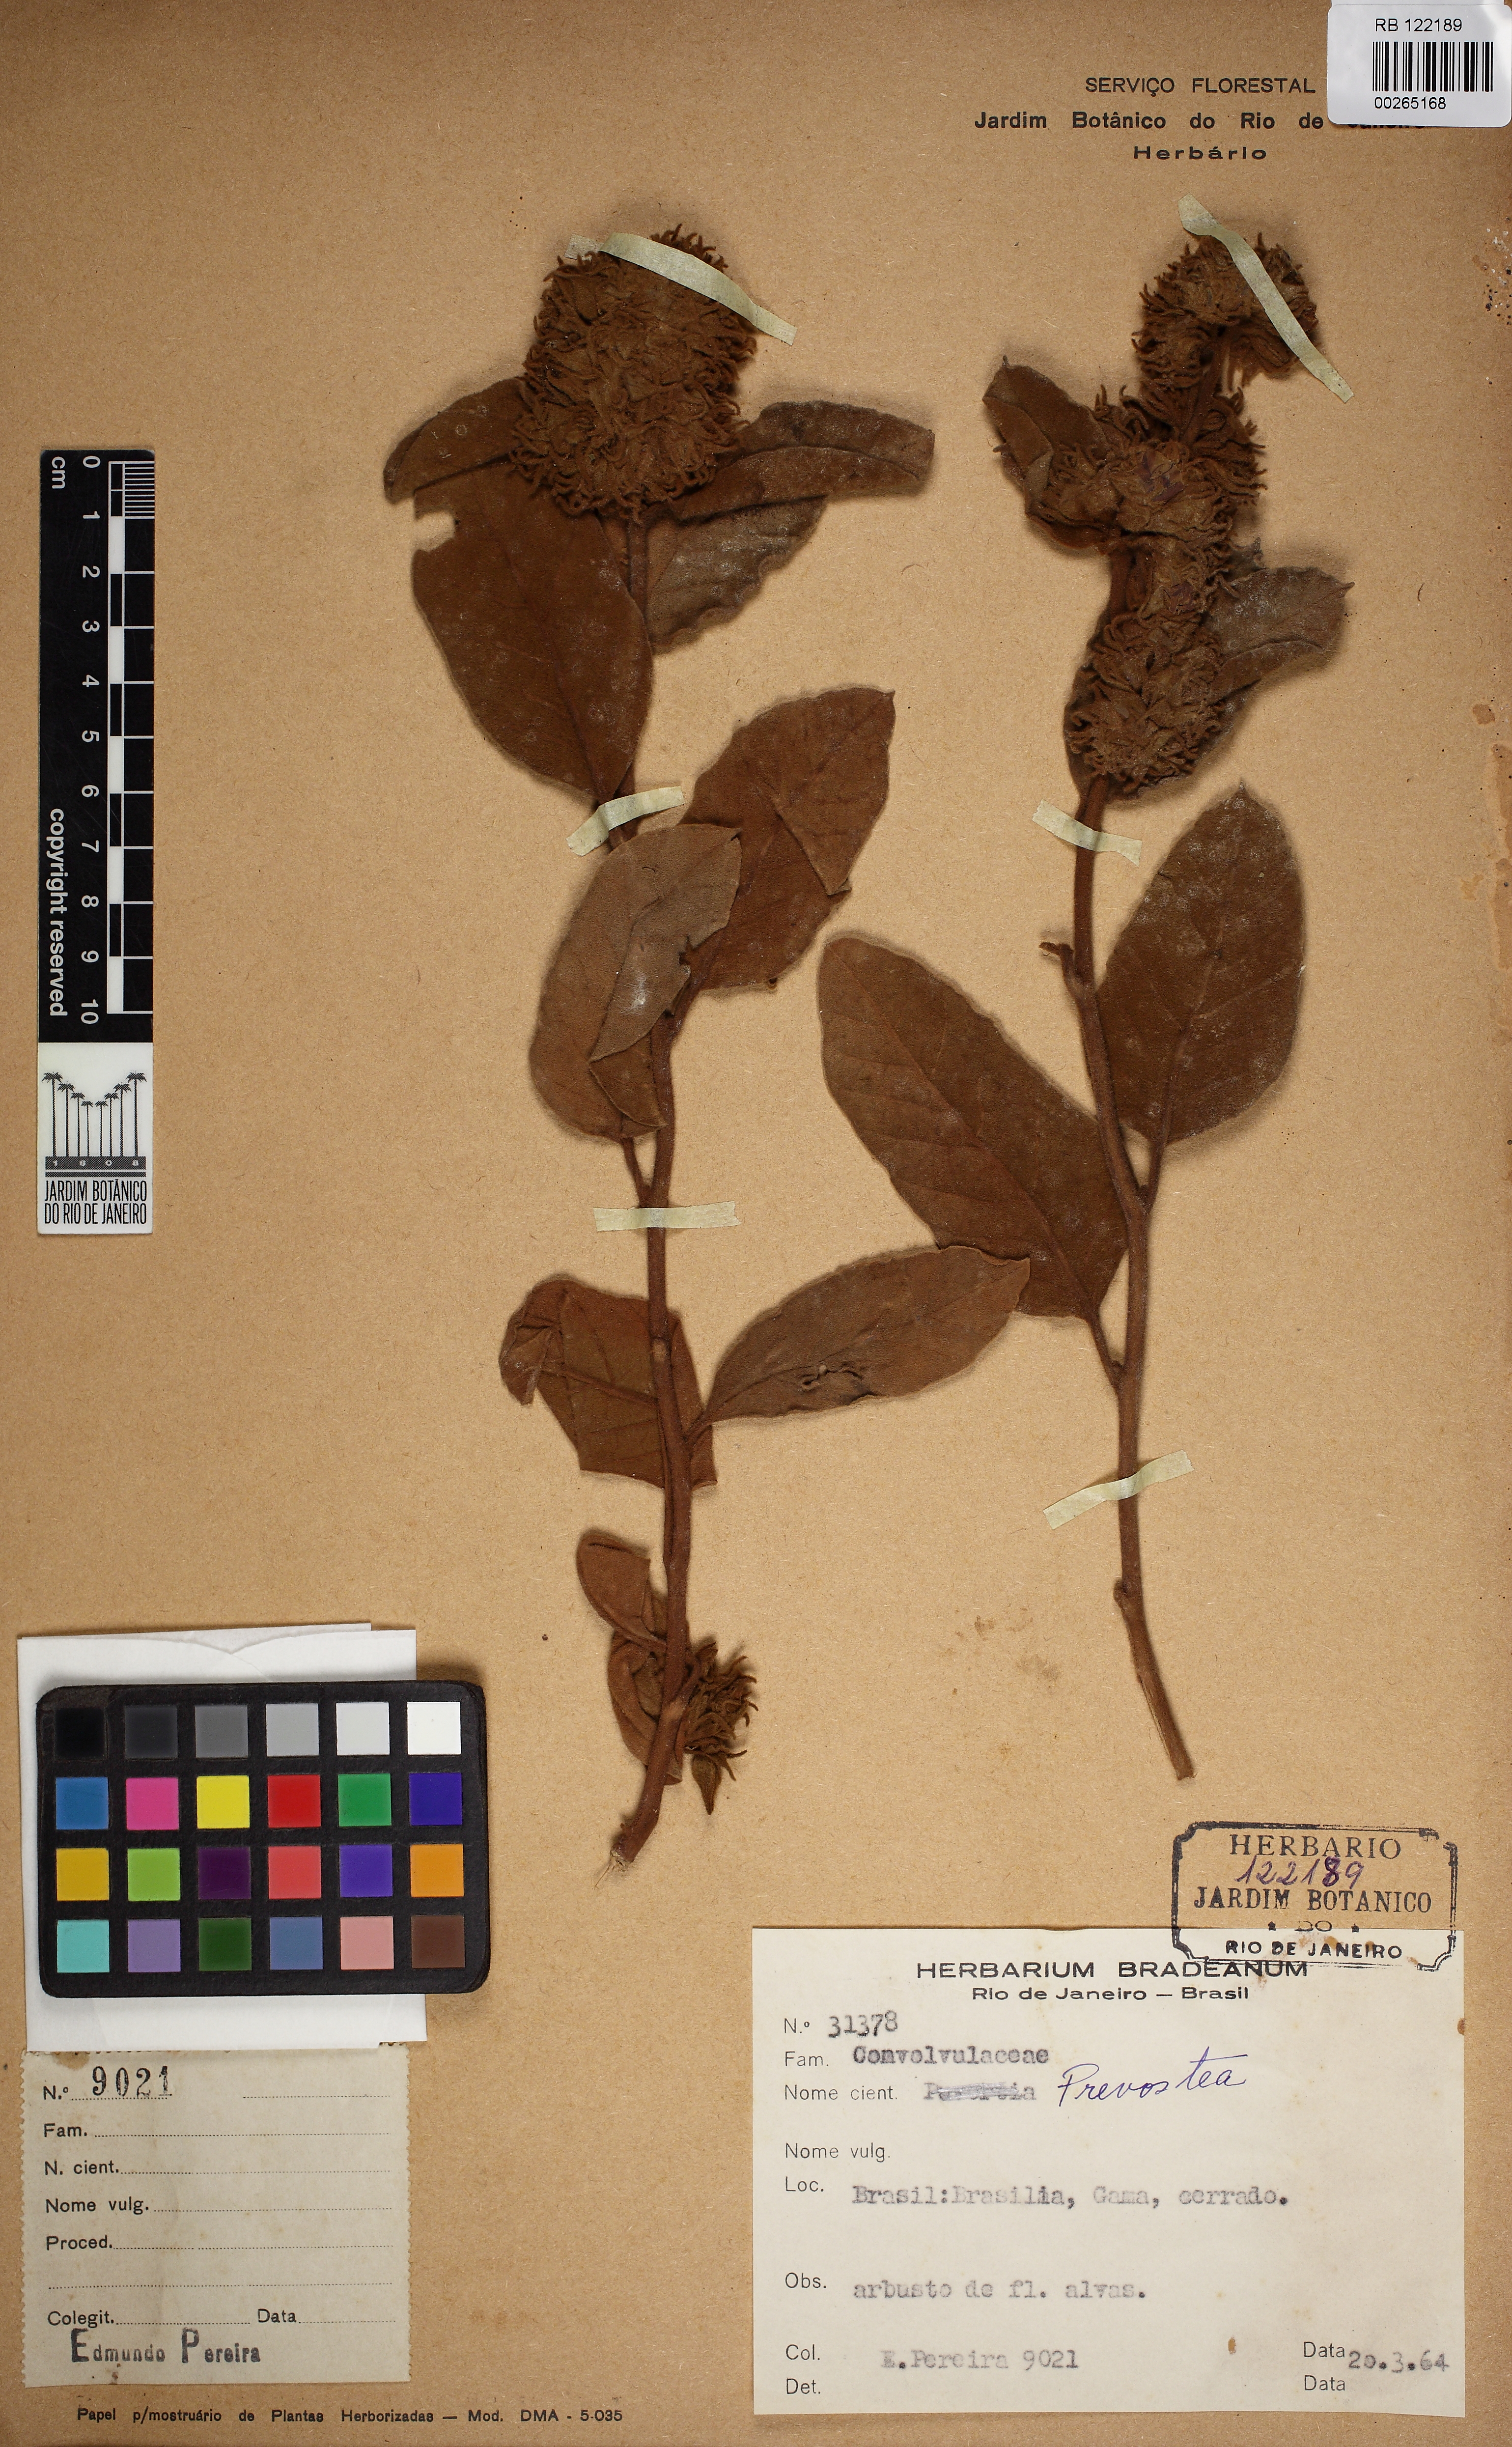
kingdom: Plantae
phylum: Tracheophyta
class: Magnoliopsida
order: Solanales
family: Convolvulaceae
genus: Jacquemontia
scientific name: Jacquemontia sphaerocephala
